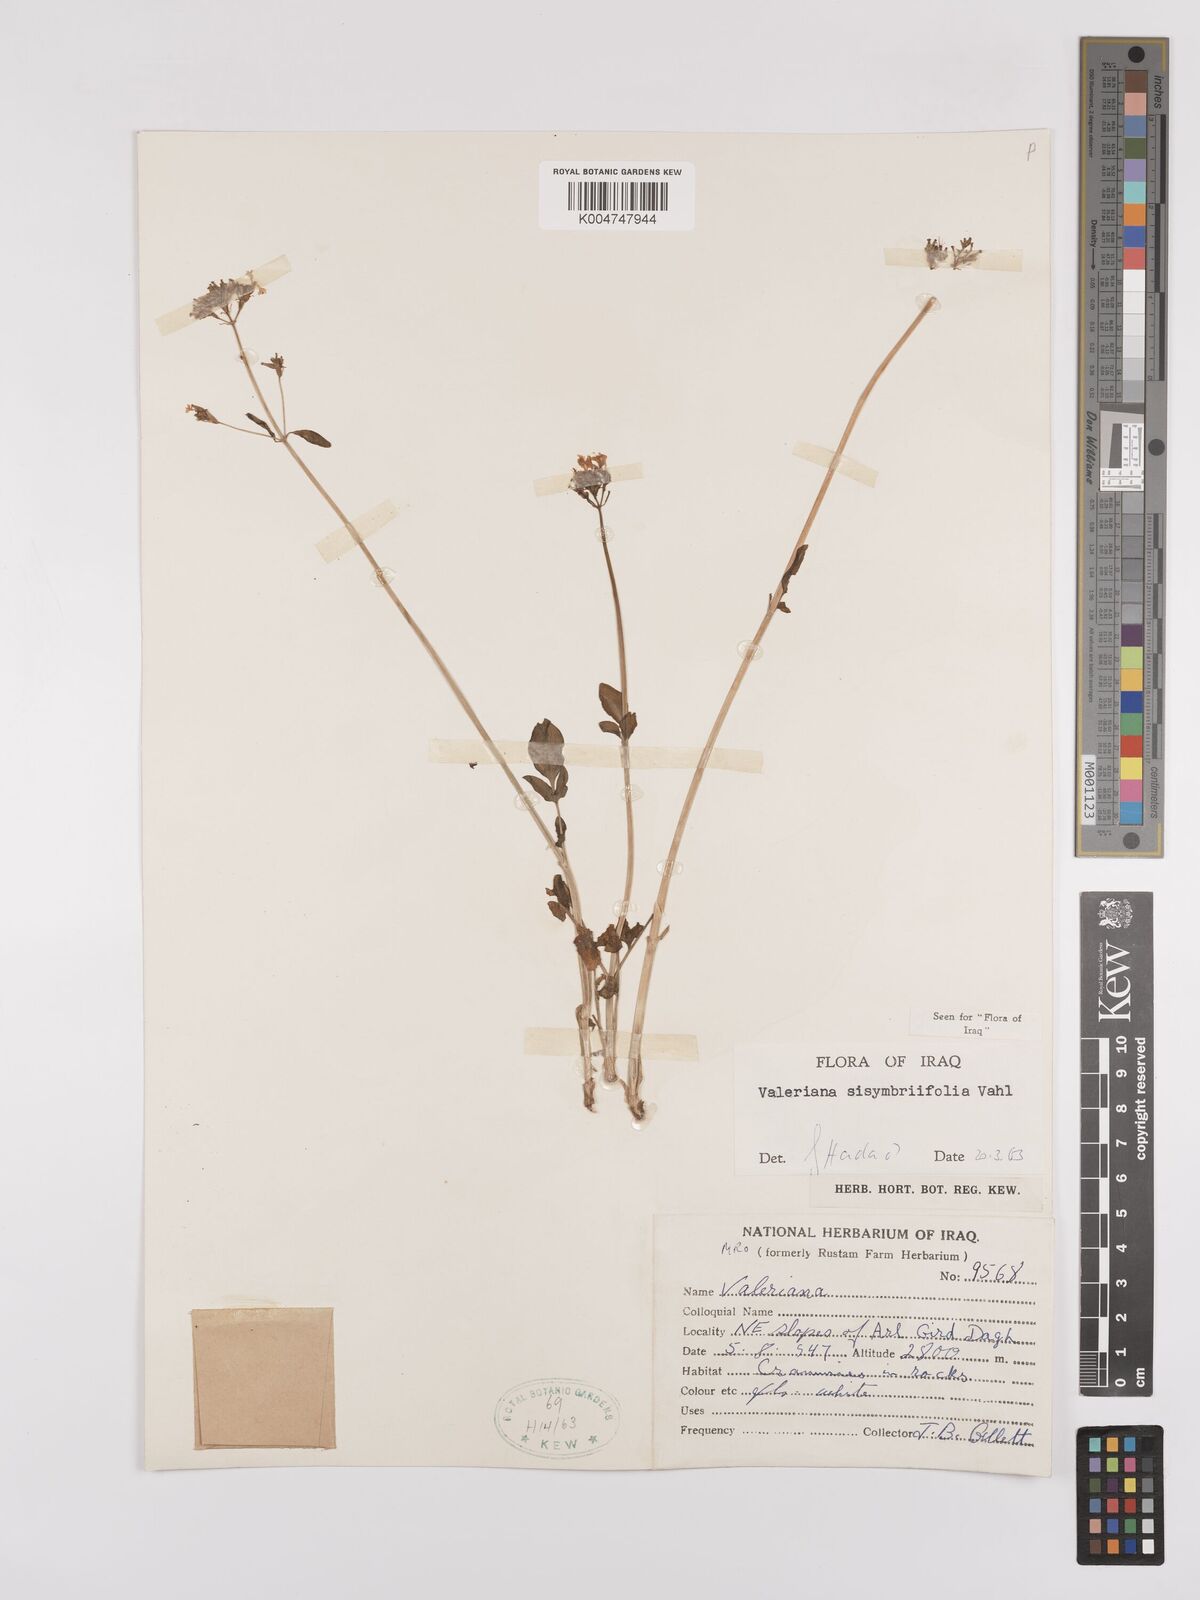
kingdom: Plantae
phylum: Tracheophyta
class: Magnoliopsida
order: Dipsacales
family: Caprifoliaceae
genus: Valeriana
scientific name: Valeriana
